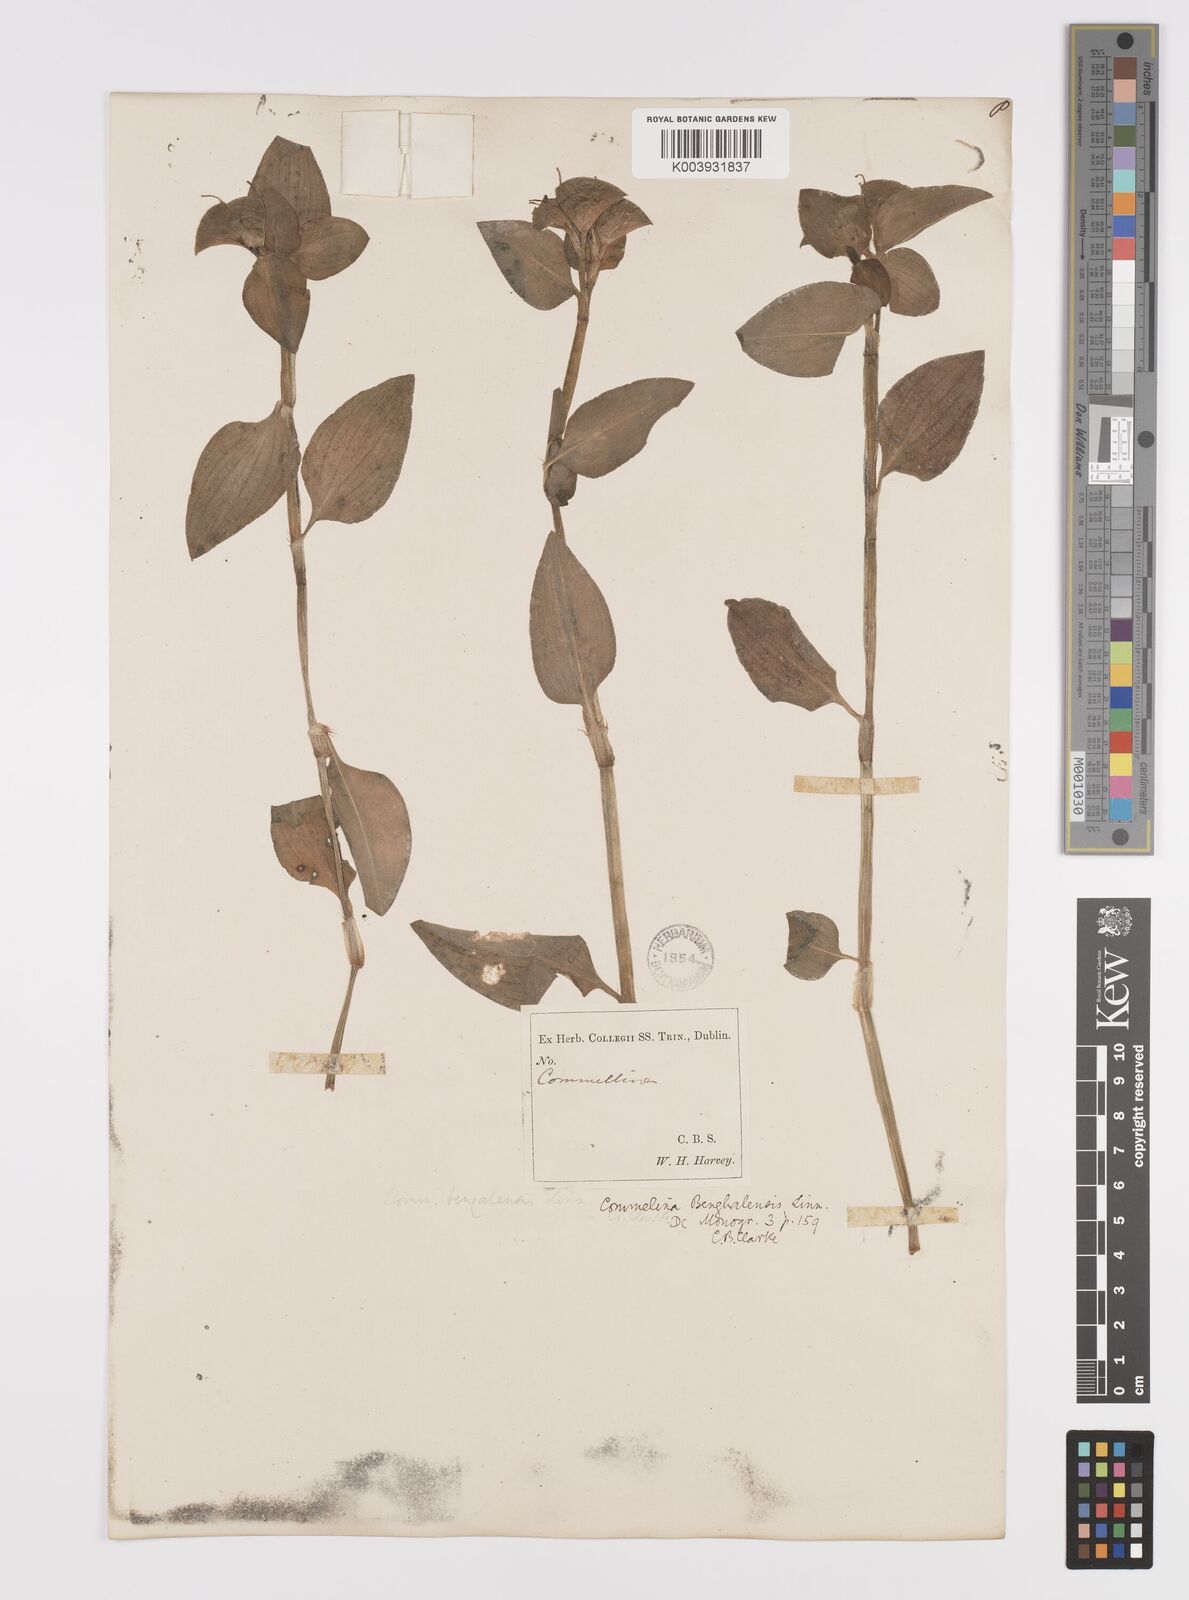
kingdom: Plantae
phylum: Tracheophyta
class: Liliopsida
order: Commelinales
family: Commelinaceae
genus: Commelina
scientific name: Commelina benghalensis
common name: Jio
